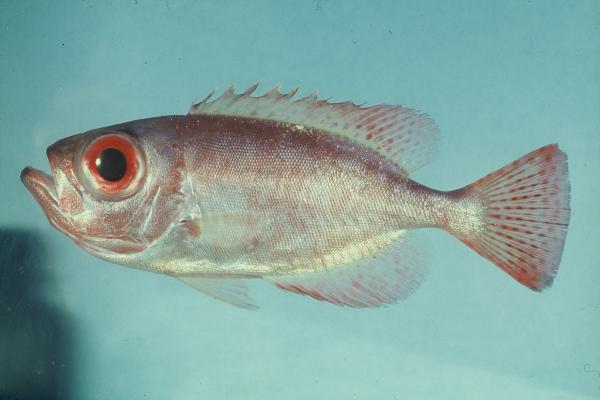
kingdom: Animalia
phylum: Chordata
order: Perciformes
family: Priacanthidae
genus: Heteropriacanthus
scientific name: Heteropriacanthus cruentatus
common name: Glasseye
